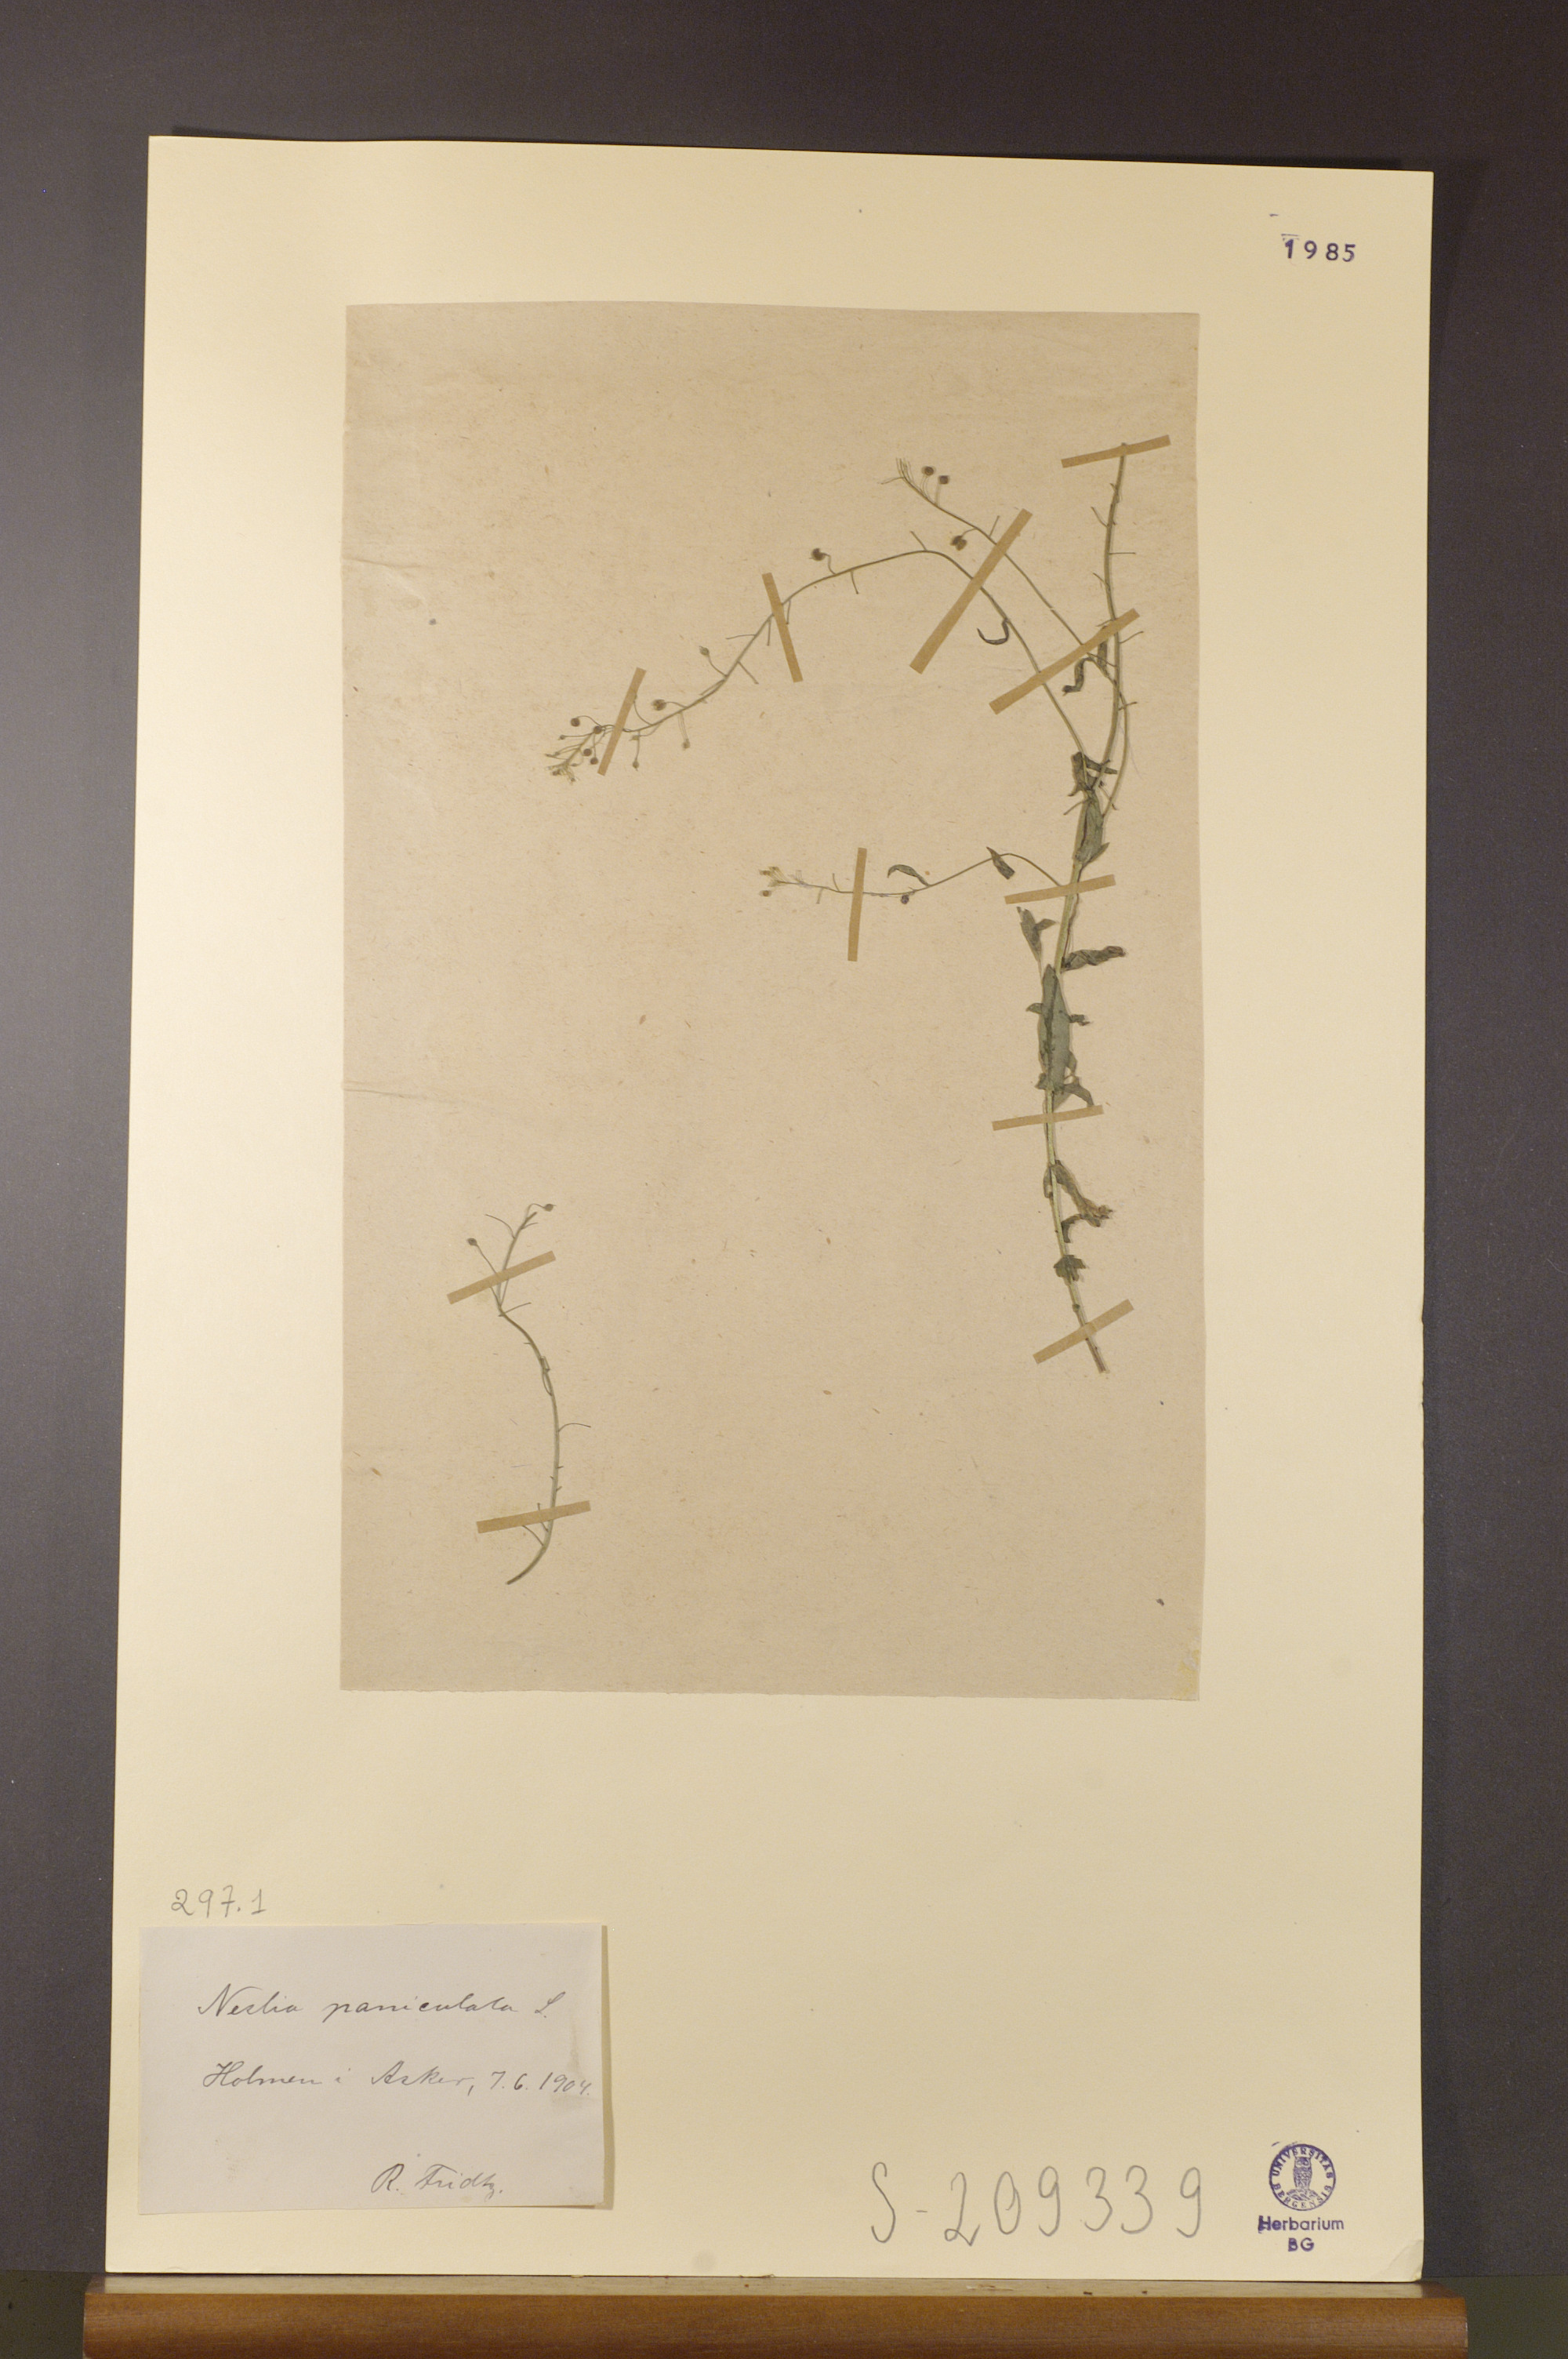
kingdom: Plantae
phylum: Tracheophyta
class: Magnoliopsida
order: Brassicales
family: Brassicaceae
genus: Neslia
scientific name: Neslia paniculata
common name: Ball mustard
